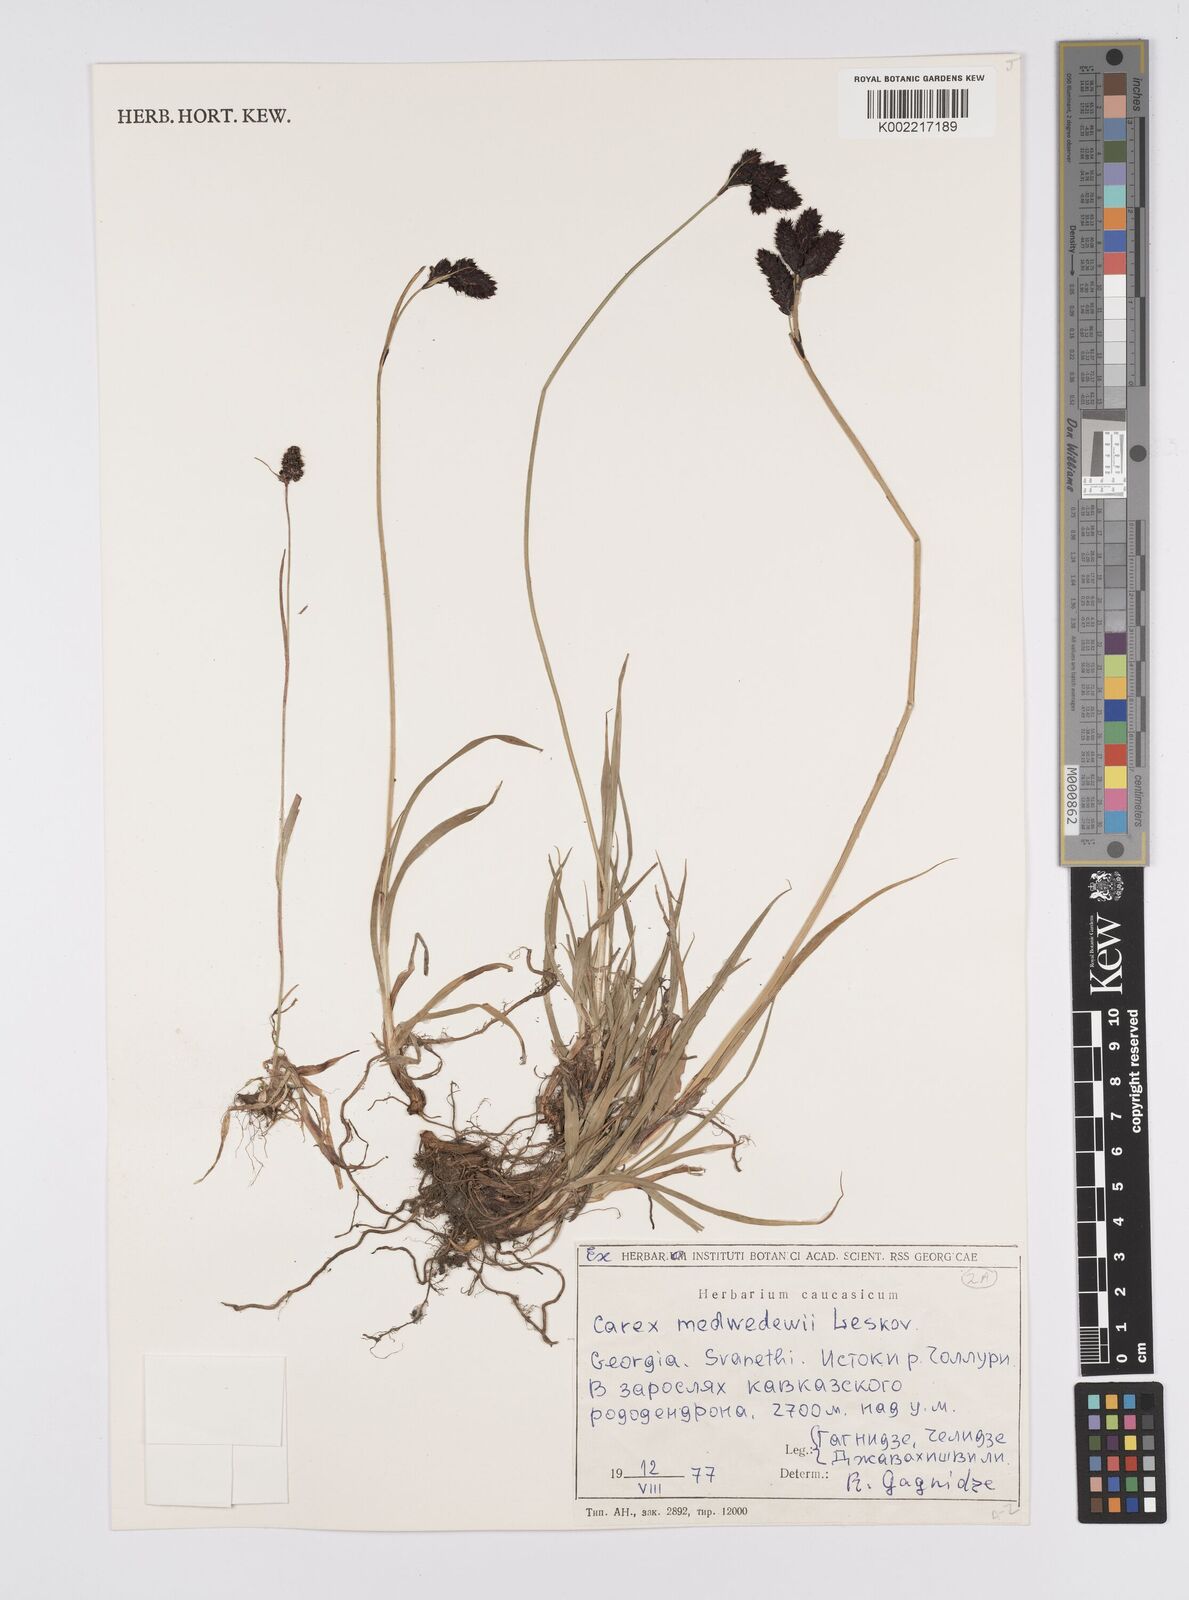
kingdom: Plantae
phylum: Tracheophyta
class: Liliopsida
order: Poales
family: Cyperaceae
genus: Carex
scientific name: Carex aterrima
